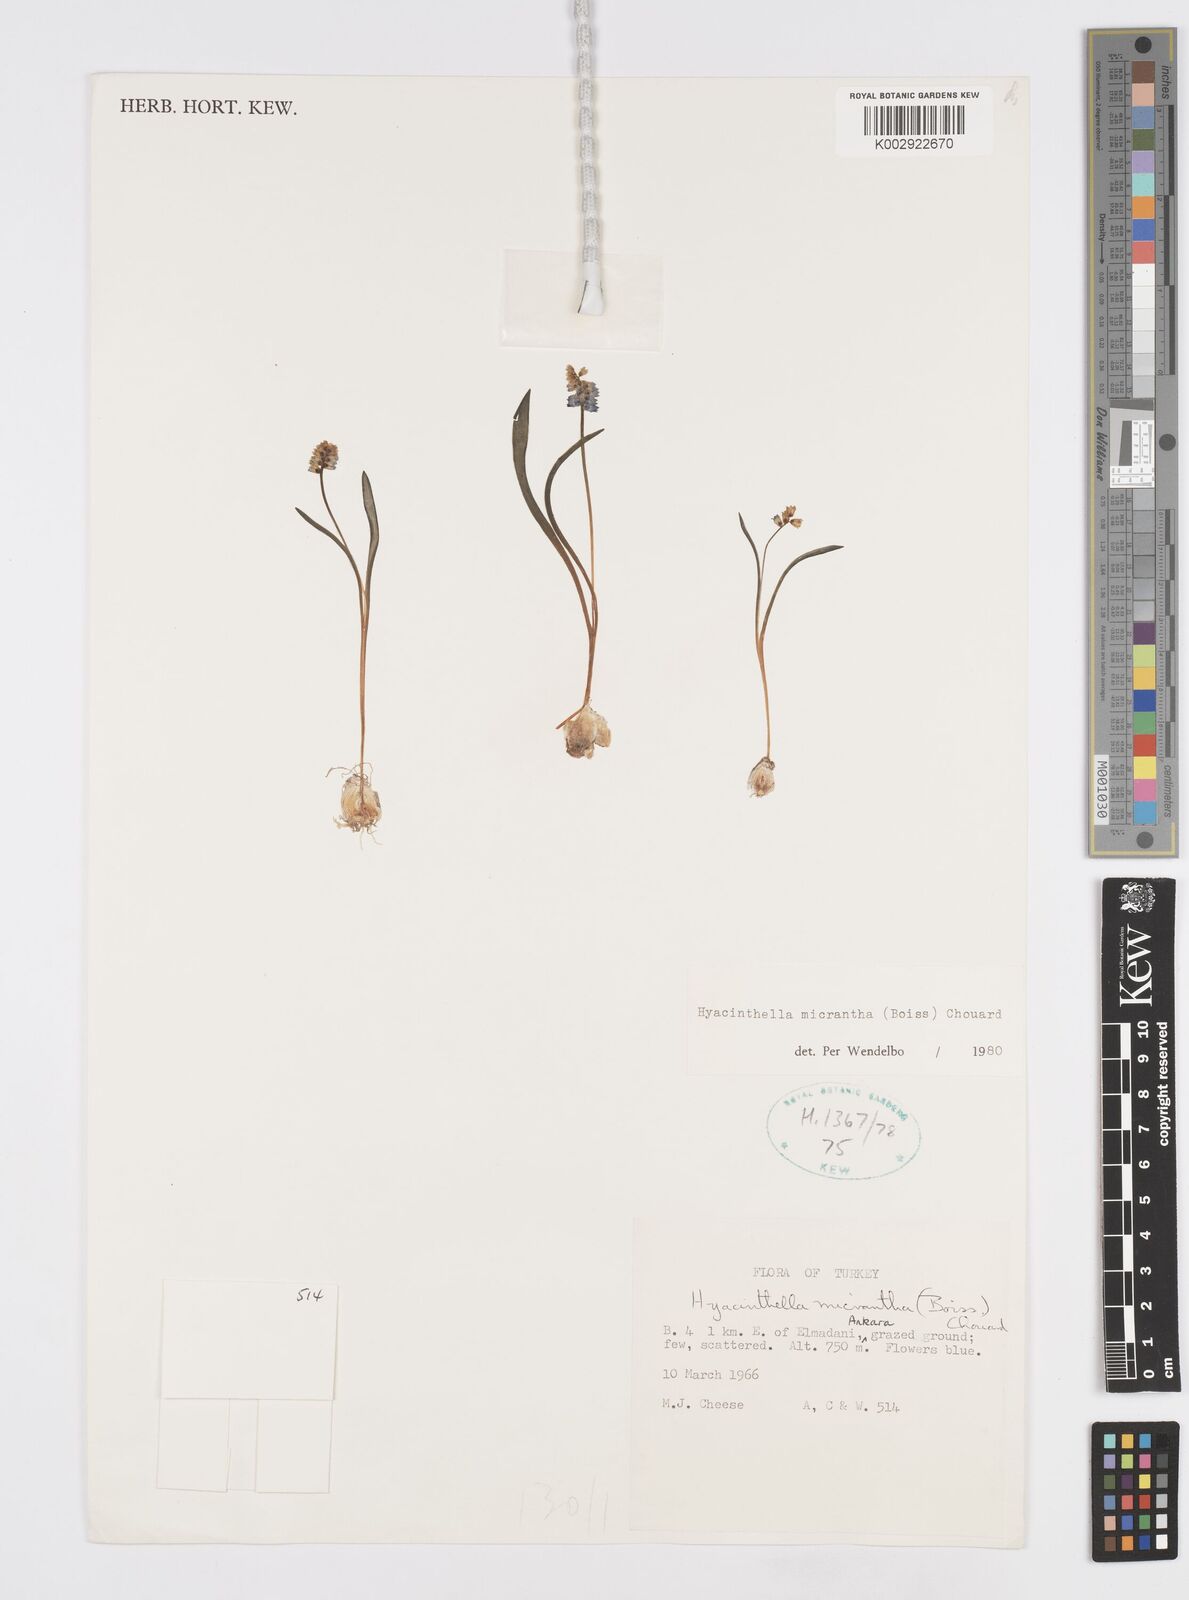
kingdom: Plantae
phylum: Tracheophyta
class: Liliopsida
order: Asparagales
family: Asparagaceae
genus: Hyacinthella
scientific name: Hyacinthella micrantha
